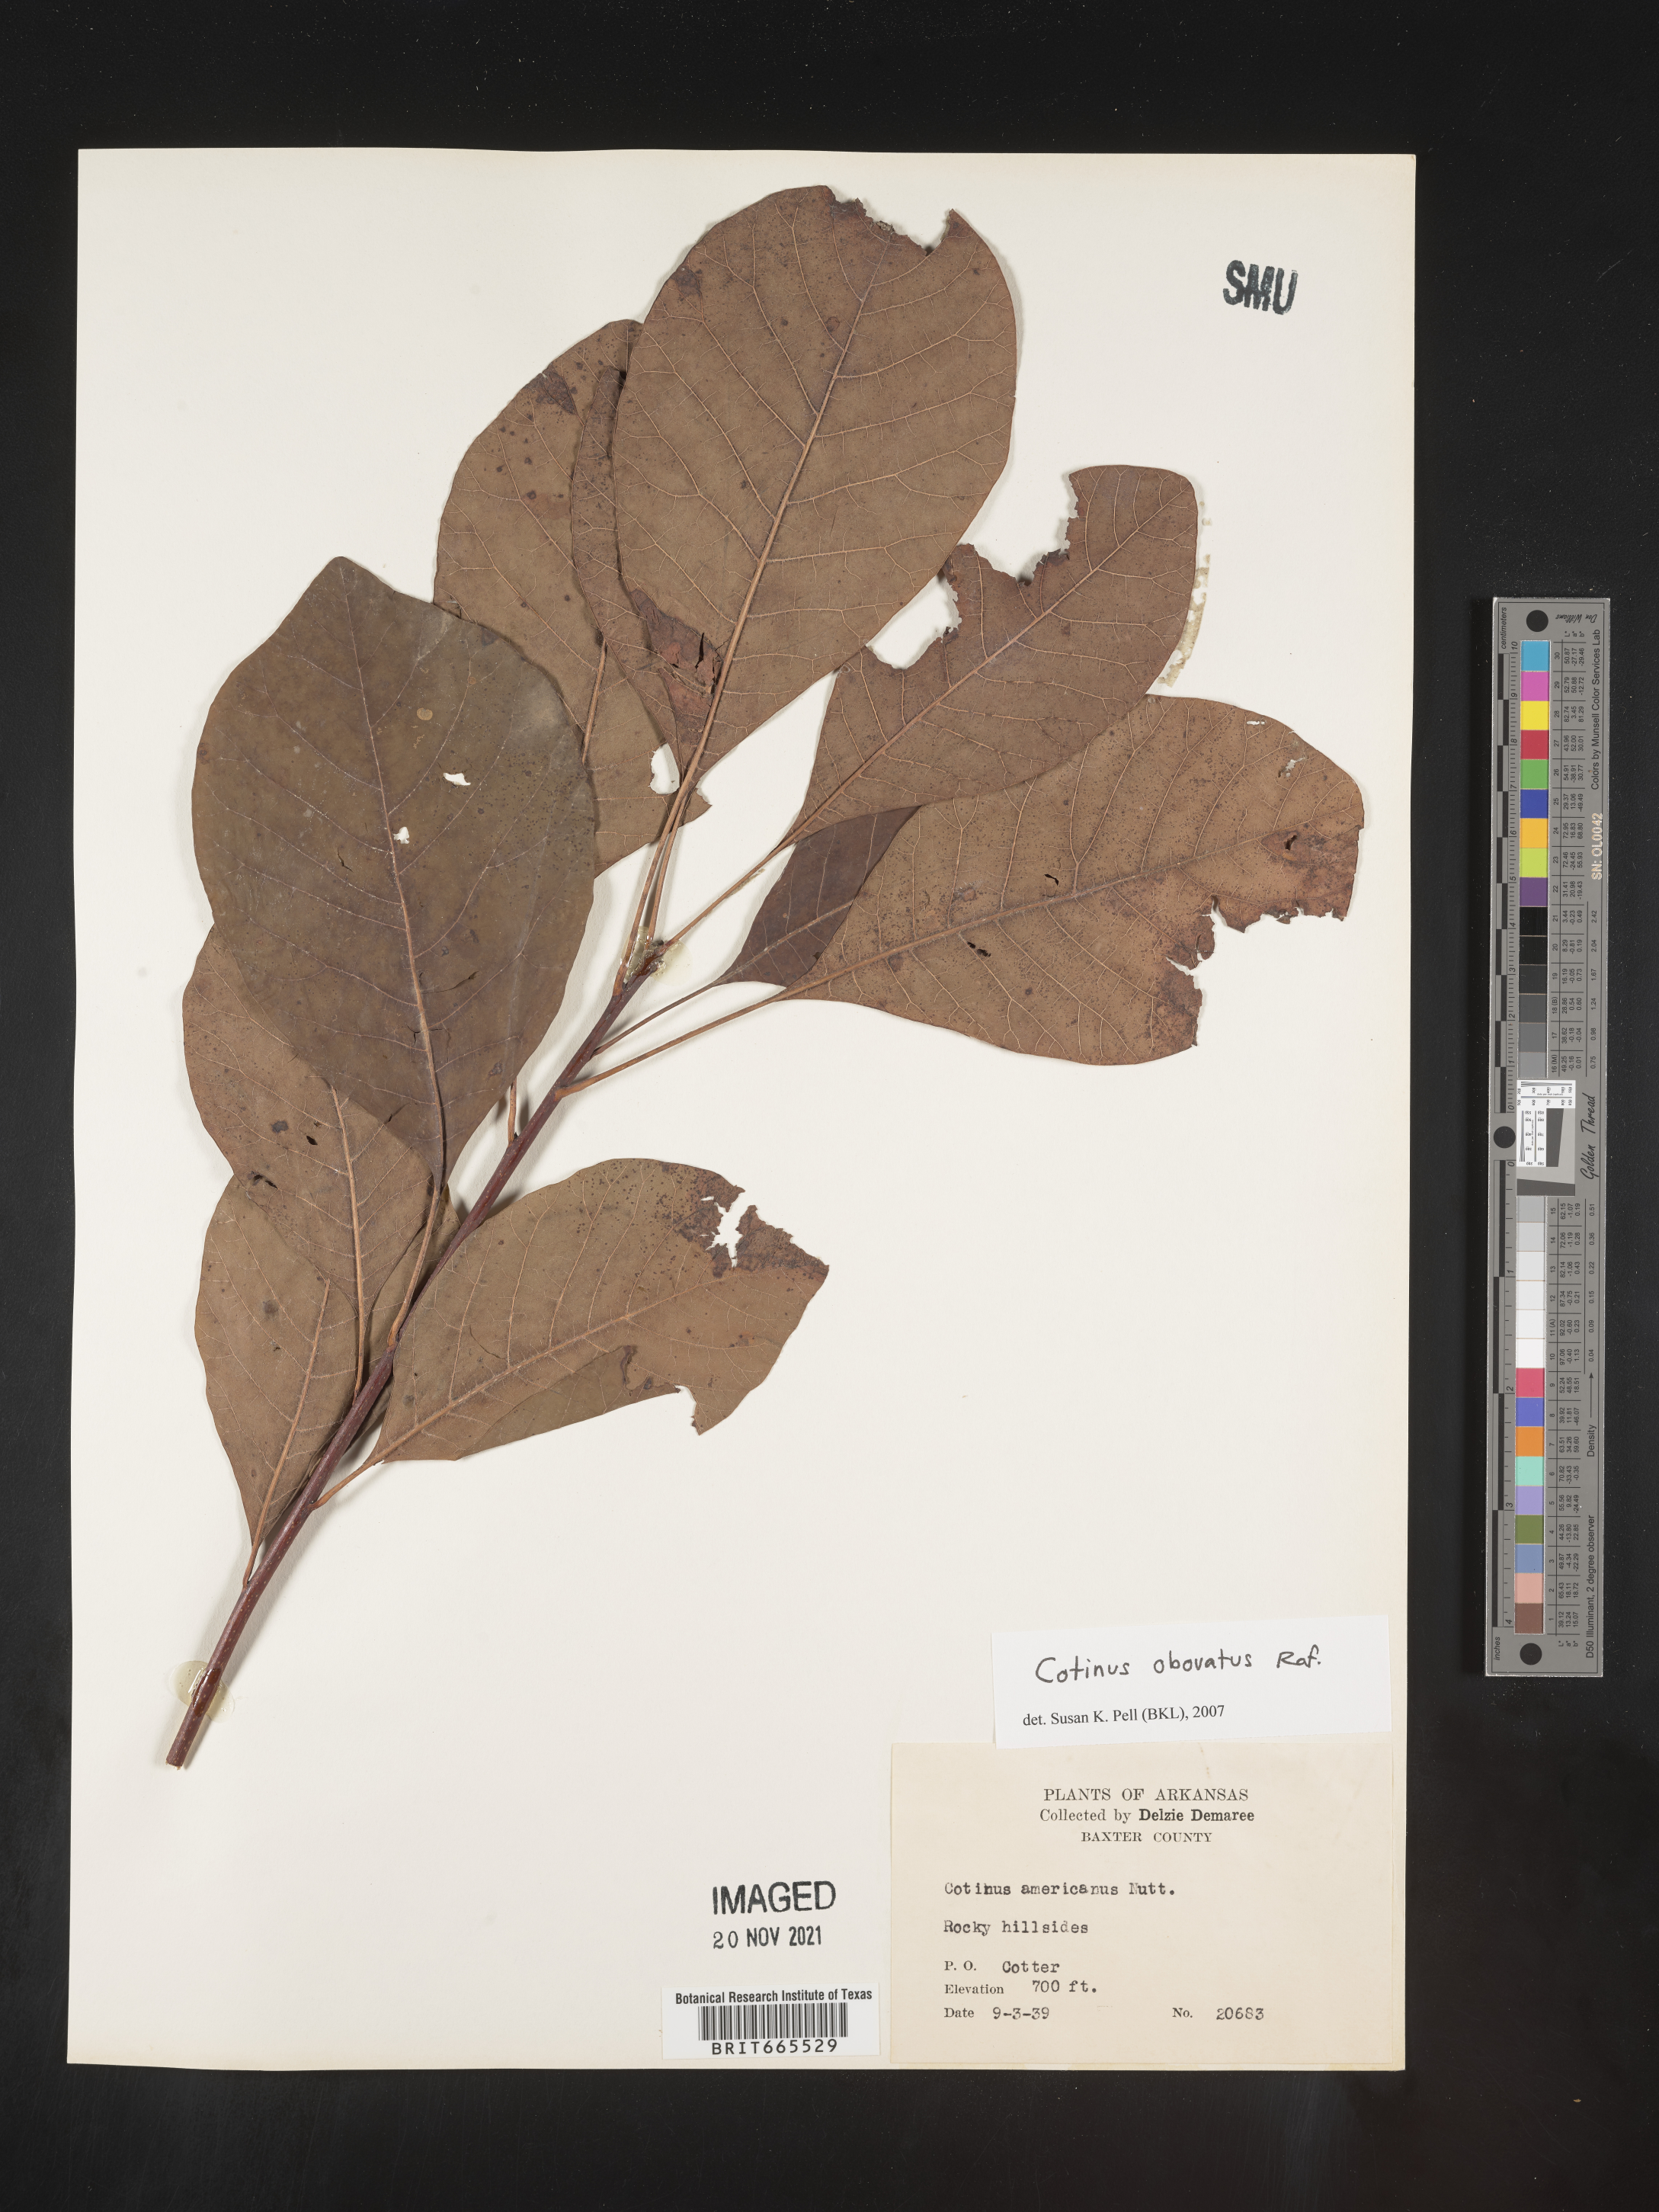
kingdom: Plantae
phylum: Tracheophyta
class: Magnoliopsida
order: Sapindales
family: Anacardiaceae
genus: Cotinus
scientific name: Cotinus obovatus
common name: Chittamwood
